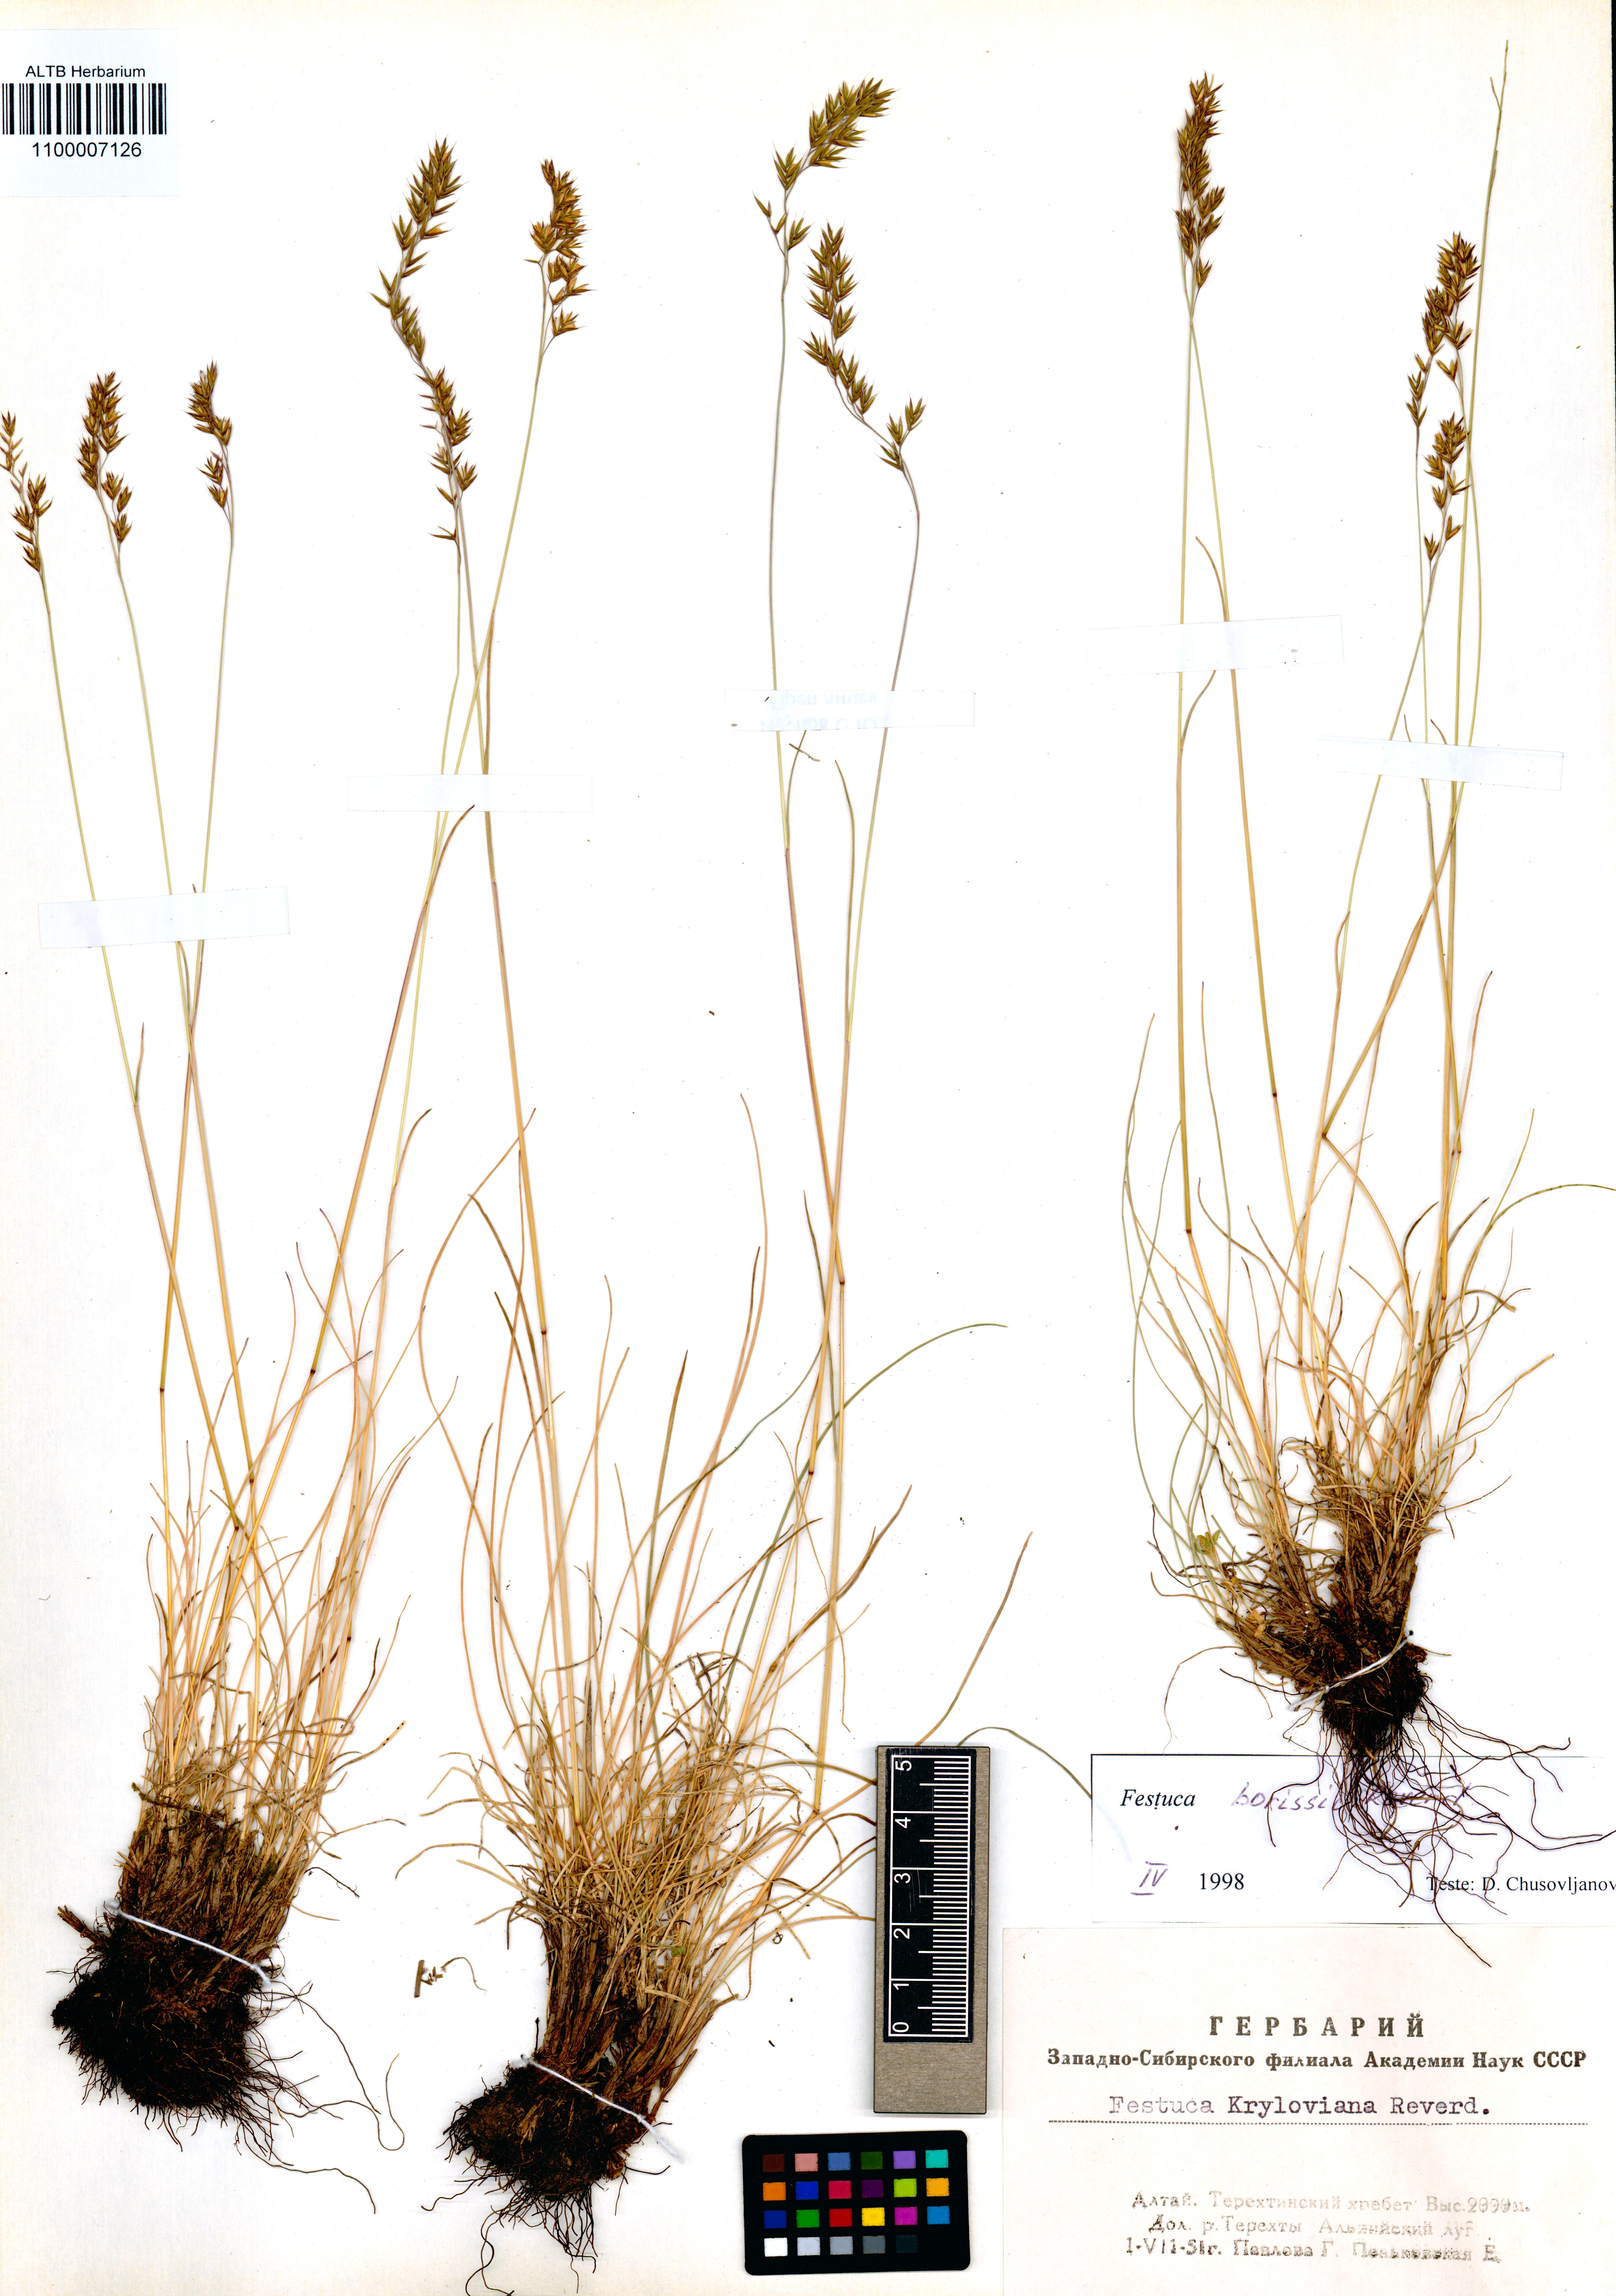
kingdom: Plantae
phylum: Tracheophyta
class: Liliopsida
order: Poales
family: Poaceae
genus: Festuca
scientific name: Festuca borissii
